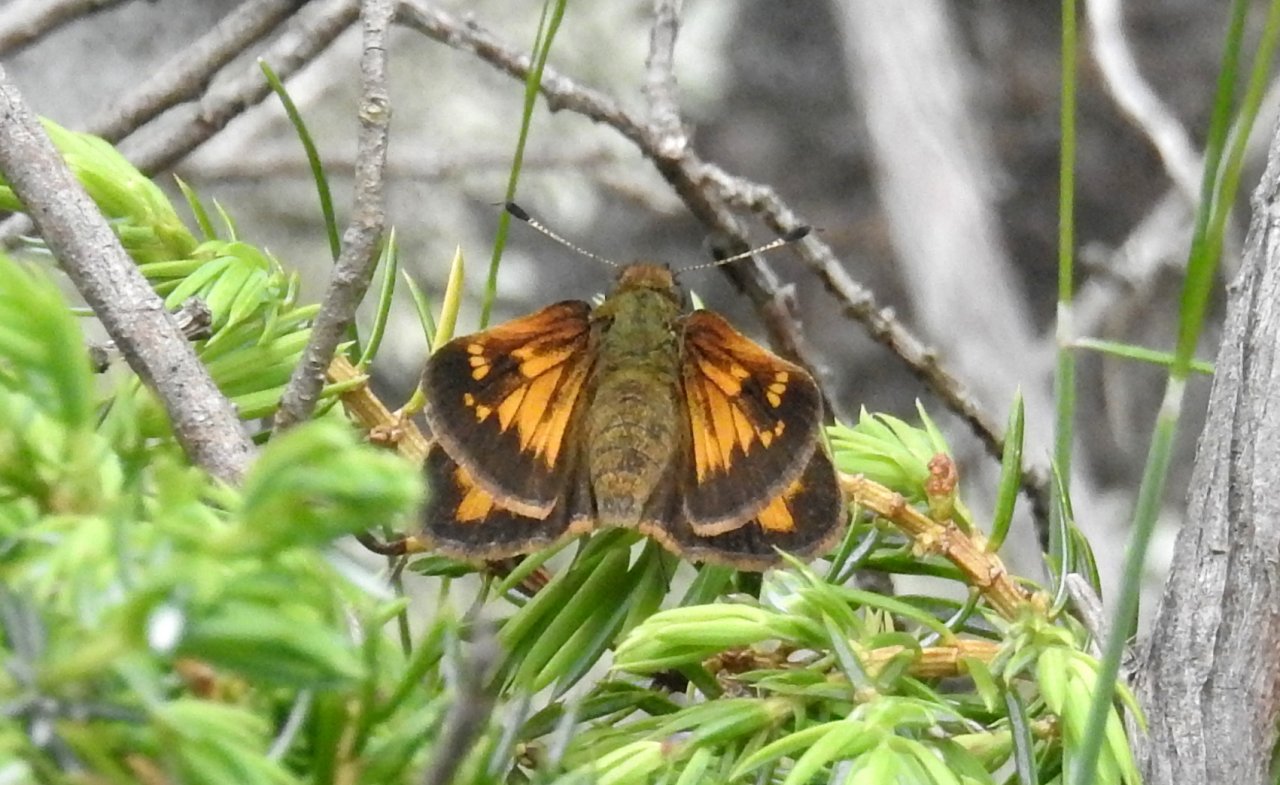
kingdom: Animalia
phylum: Arthropoda
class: Insecta
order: Lepidoptera
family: Hesperiidae
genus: Lon
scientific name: Lon hobomok
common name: Hobomok Skipper
